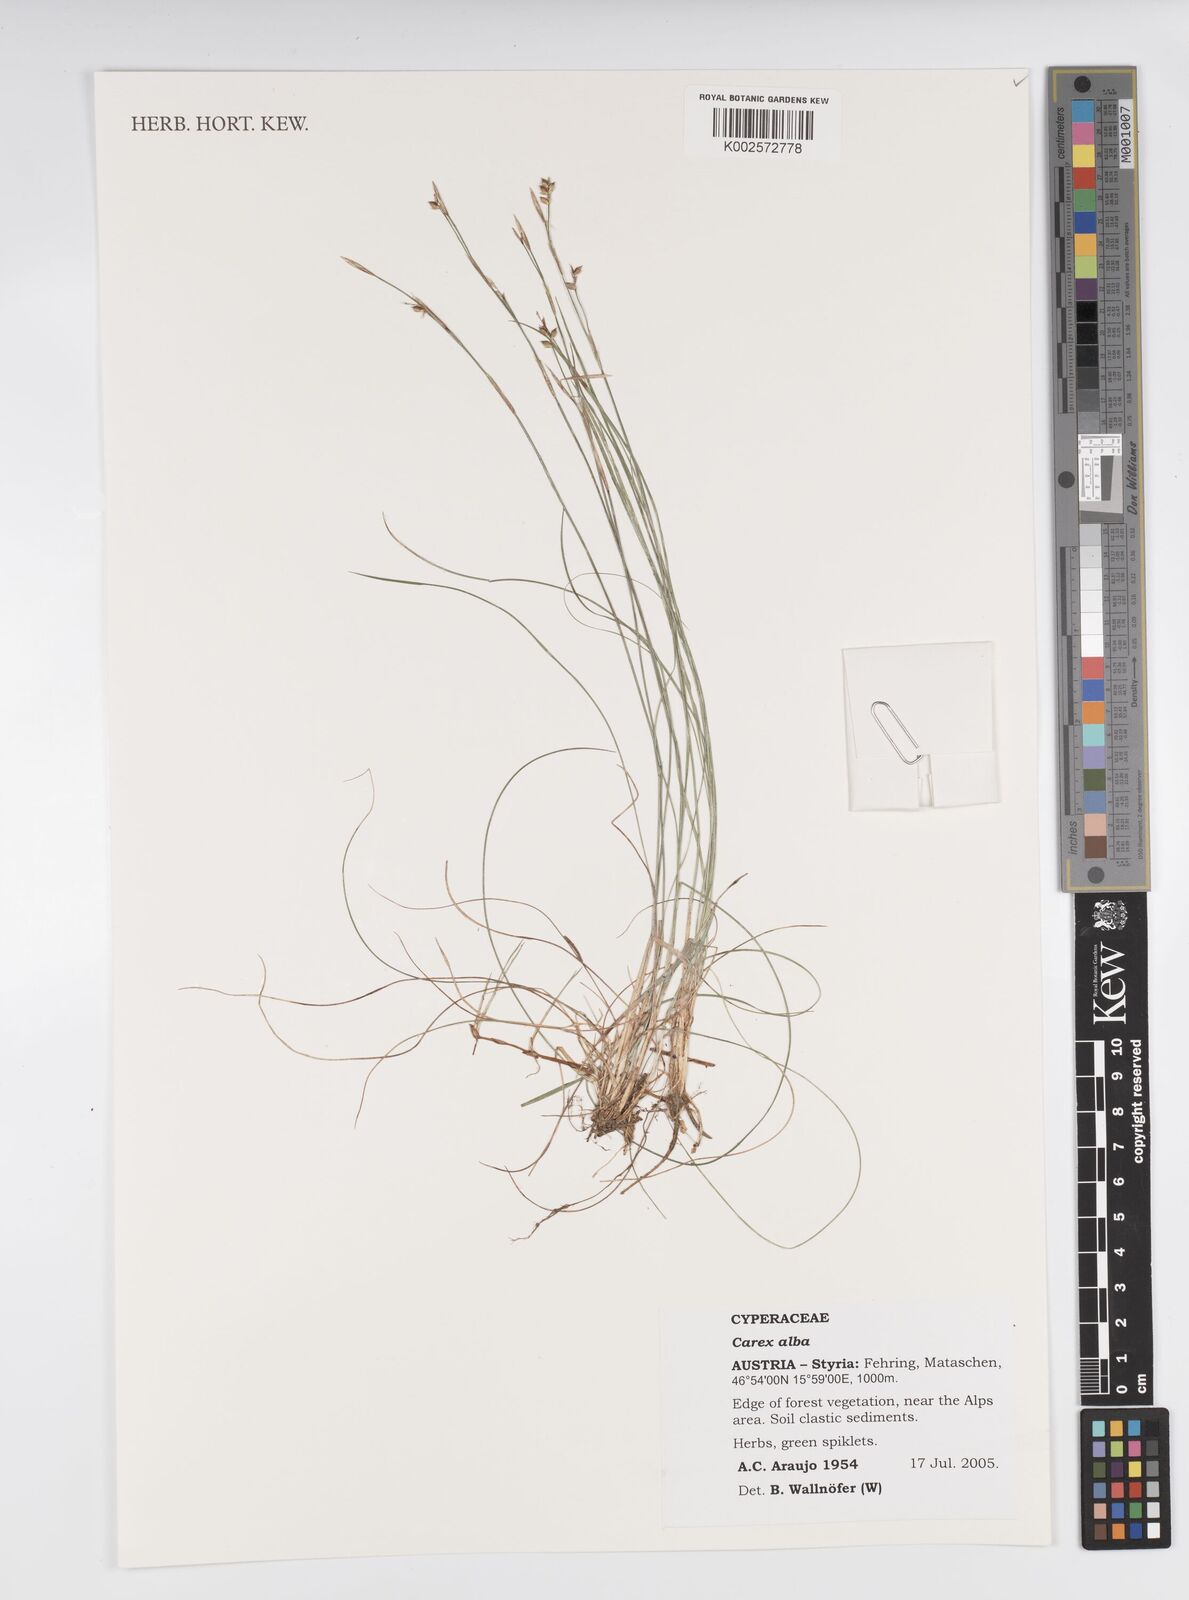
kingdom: Plantae
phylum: Tracheophyta
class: Liliopsida
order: Poales
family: Cyperaceae
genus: Carex
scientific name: Carex alba
